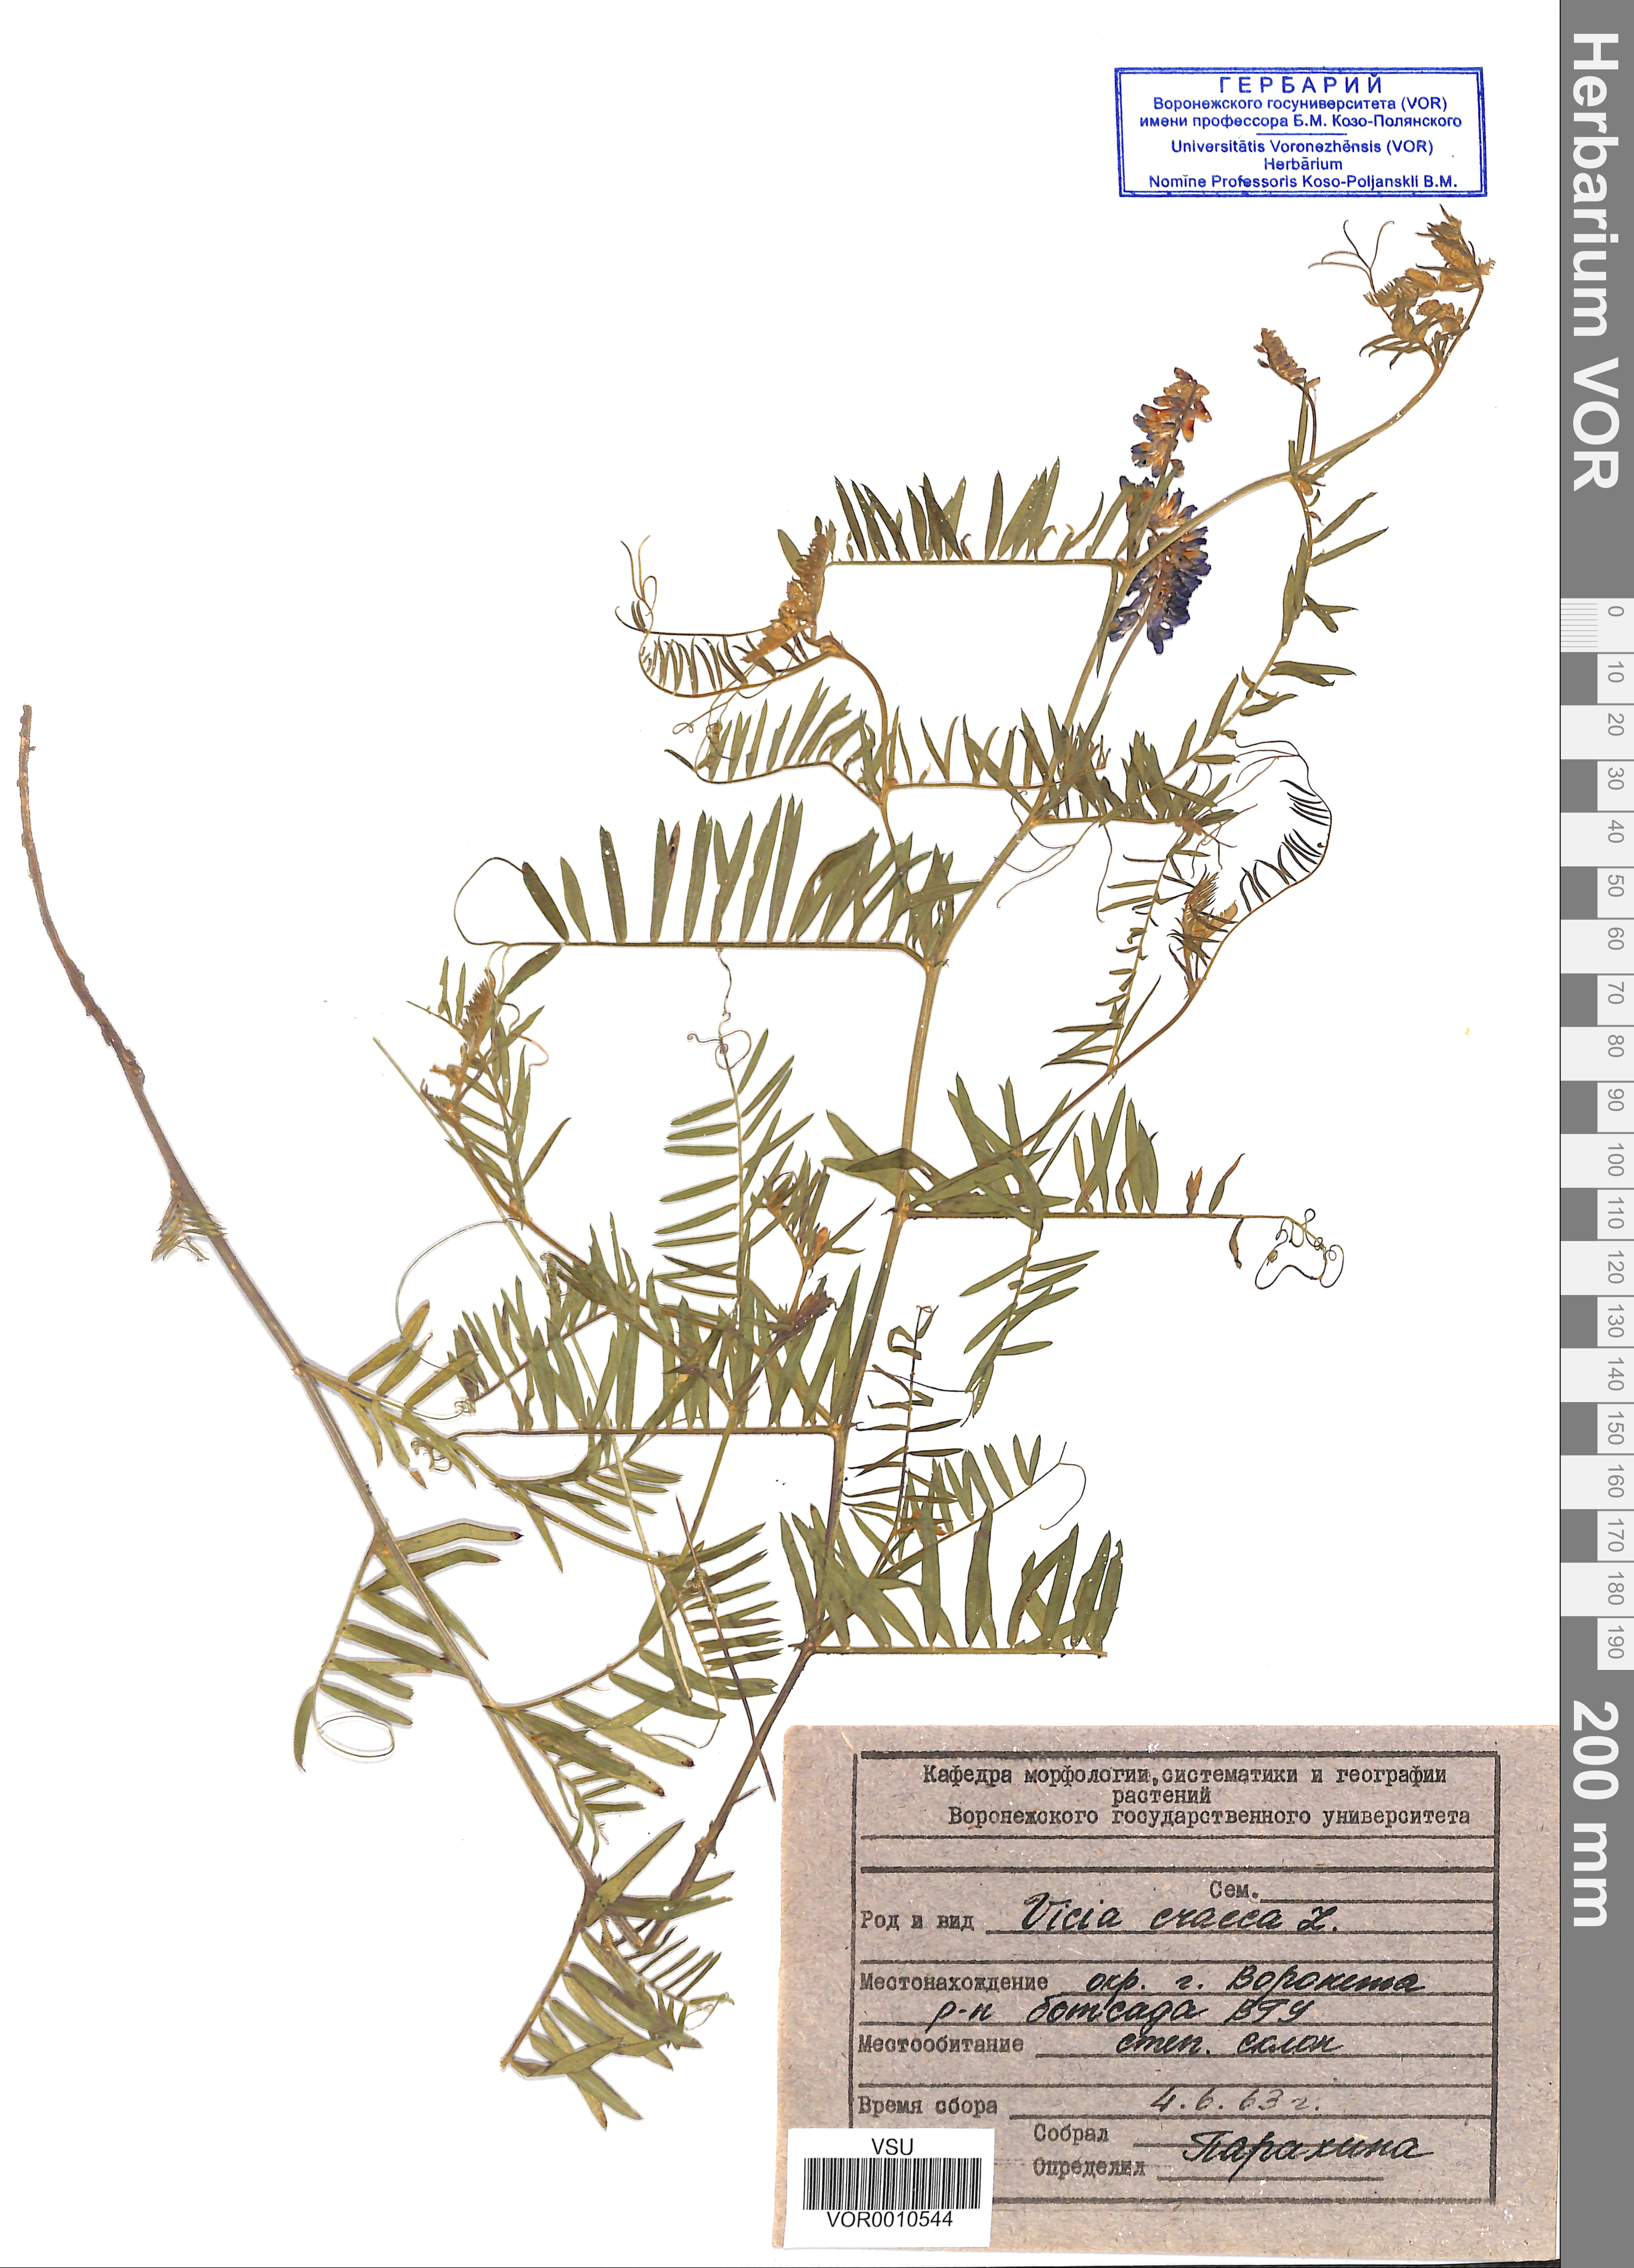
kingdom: Plantae
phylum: Tracheophyta
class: Magnoliopsida
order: Fabales
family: Fabaceae
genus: Vicia
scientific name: Vicia cracca
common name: Bird vetch
